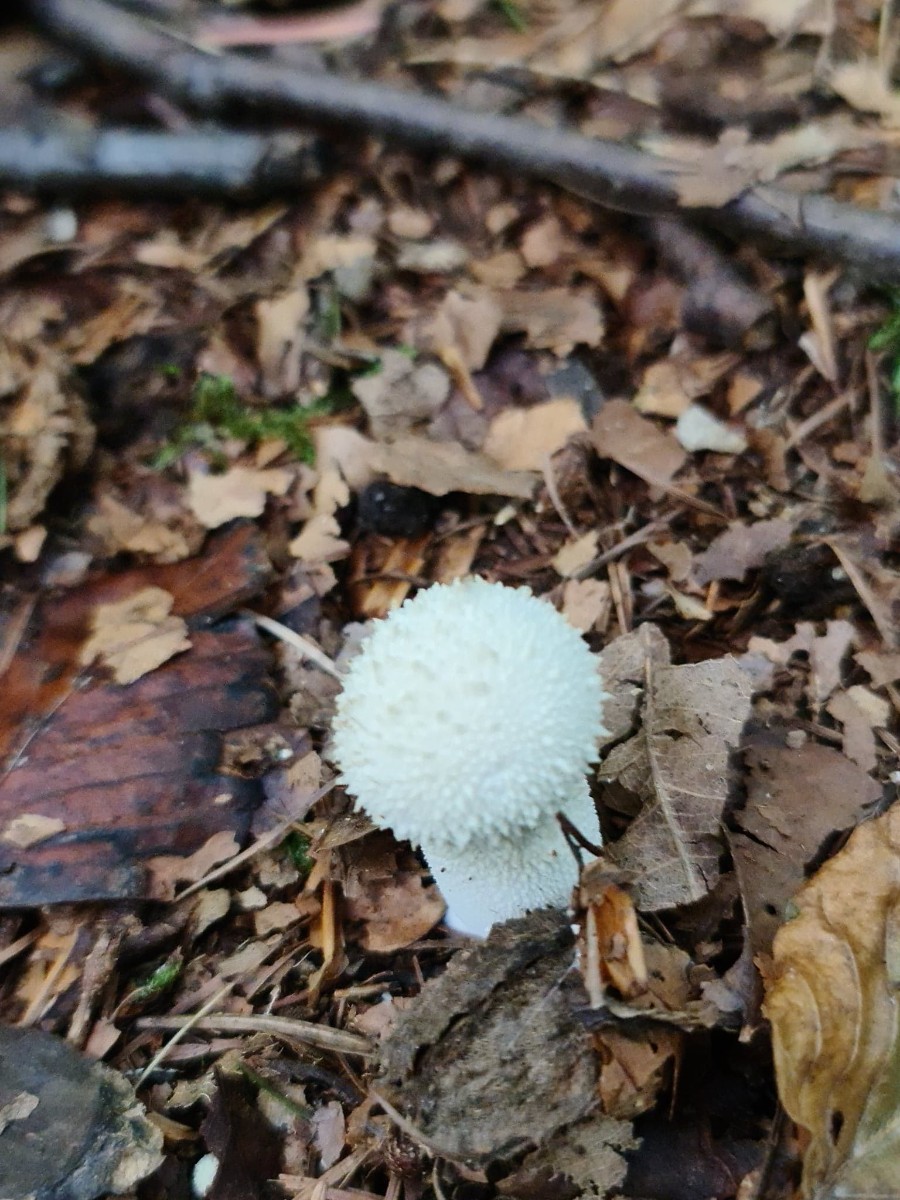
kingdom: Fungi
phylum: Basidiomycota
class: Agaricomycetes
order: Agaricales
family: Lycoperdaceae
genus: Lycoperdon
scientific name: Lycoperdon perlatum
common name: krystal-støvbold
